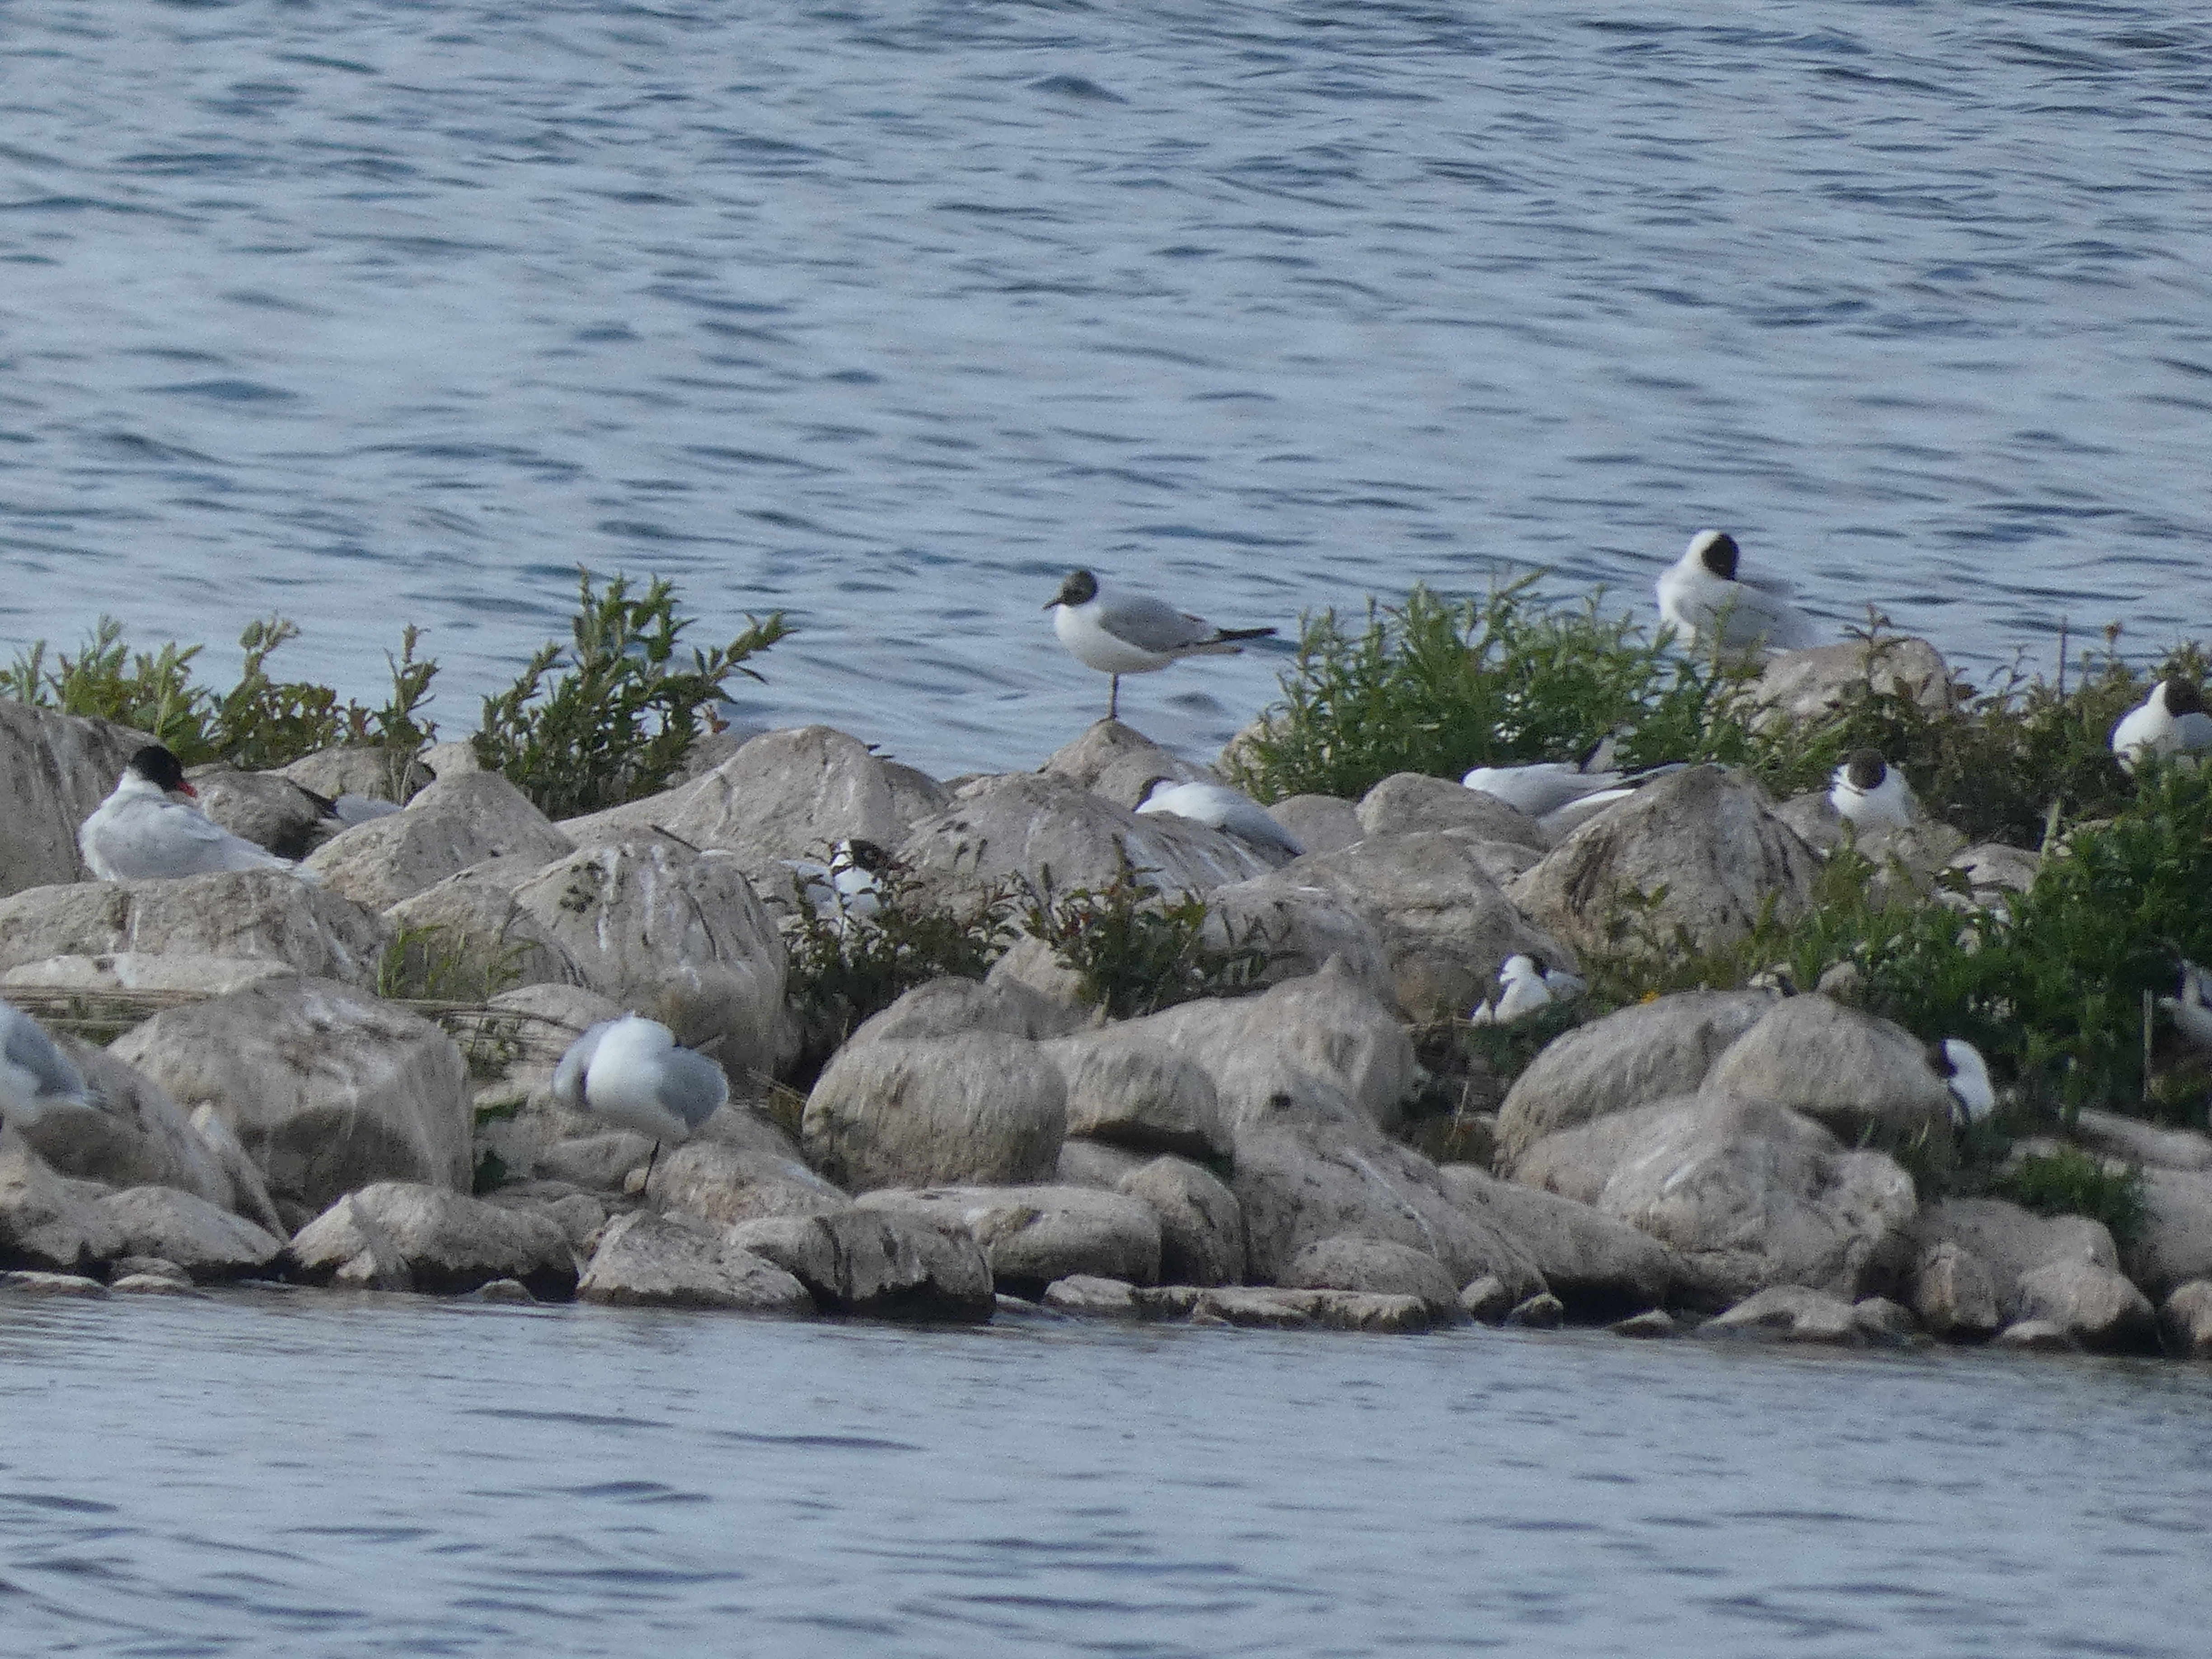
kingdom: Animalia
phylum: Chordata
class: Aves
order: Charadriiformes
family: Laridae
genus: Ichthyaetus
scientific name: Ichthyaetus melanocephalus
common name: Sorthovedet måge
